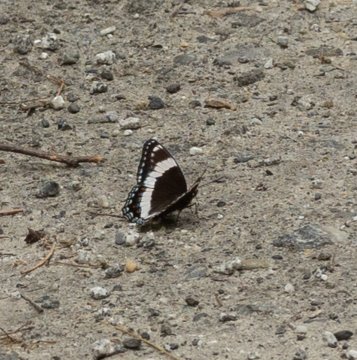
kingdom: Animalia
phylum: Arthropoda
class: Insecta
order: Lepidoptera
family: Nymphalidae
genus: Limenitis
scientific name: Limenitis arthemis
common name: Red-spotted Admiral
